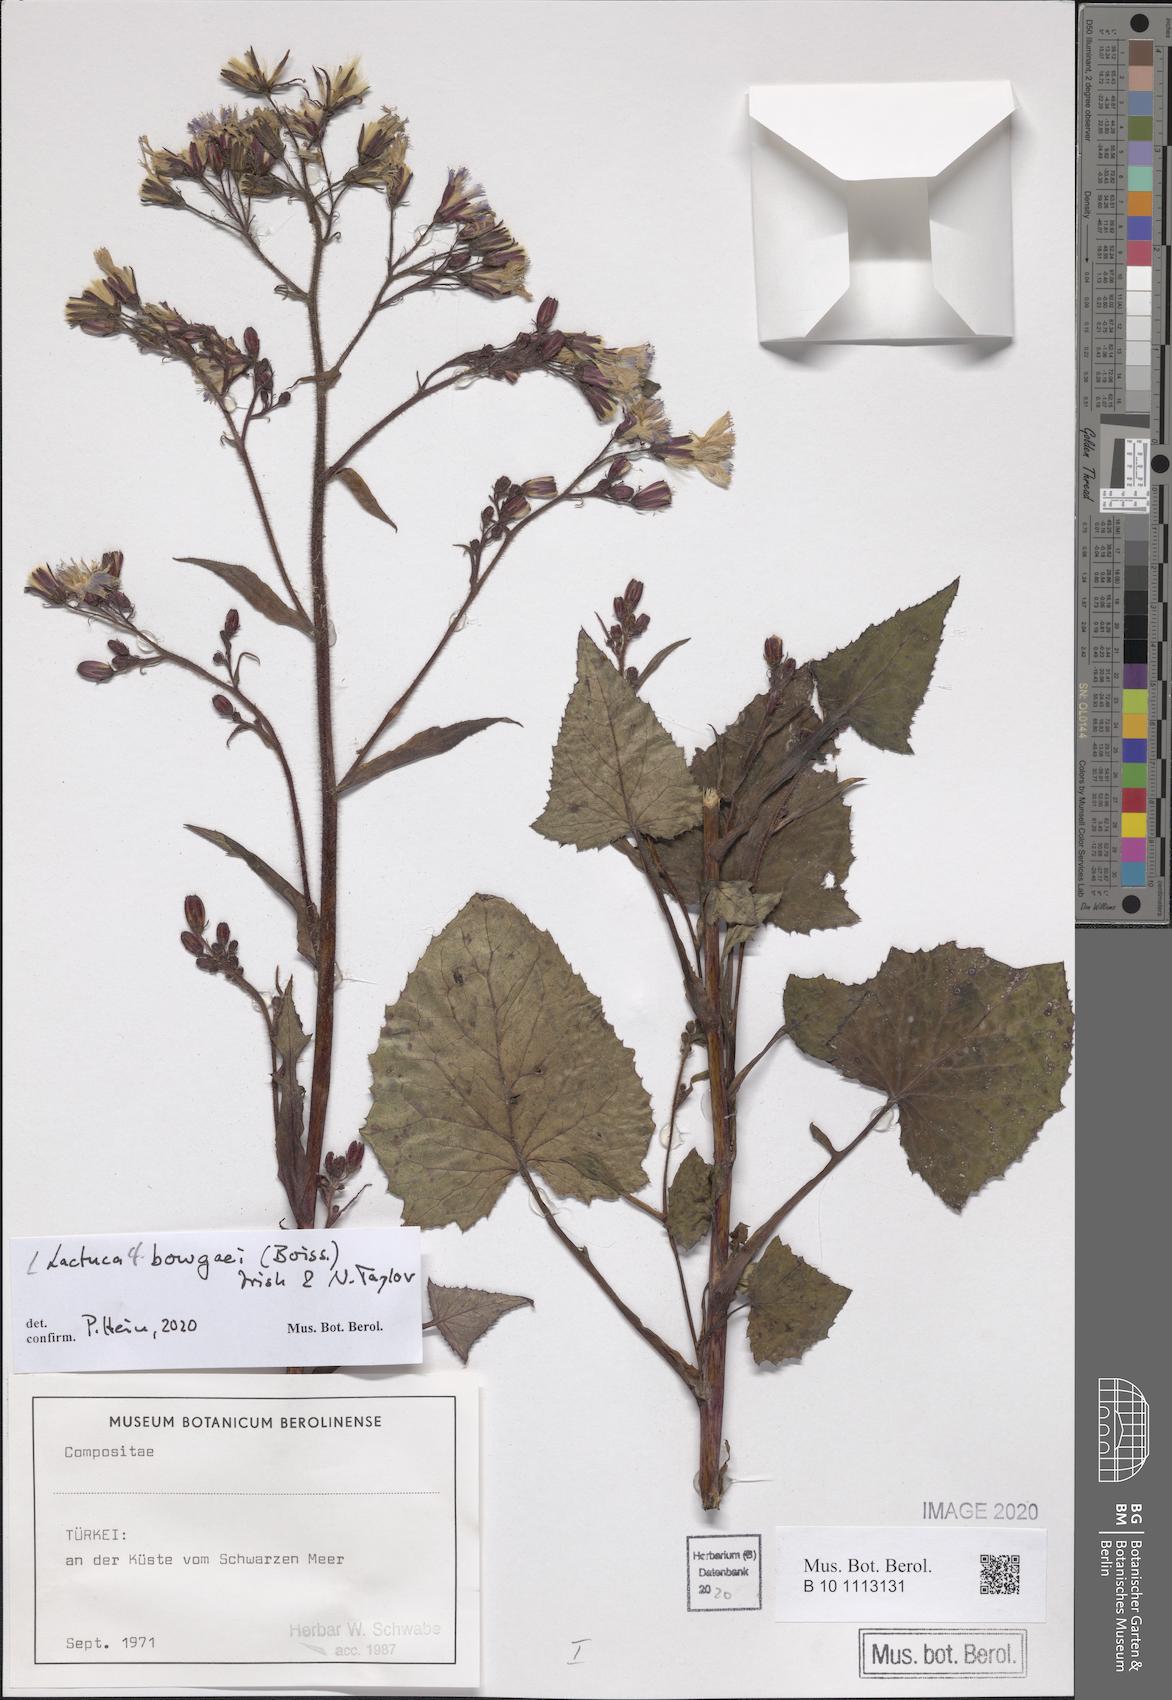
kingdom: Plantae
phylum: Tracheophyta
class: Magnoliopsida
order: Asterales
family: Asteraceae
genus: Lactuca
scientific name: Lactuca bourgaei
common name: Pontic blue-sow-thistle
